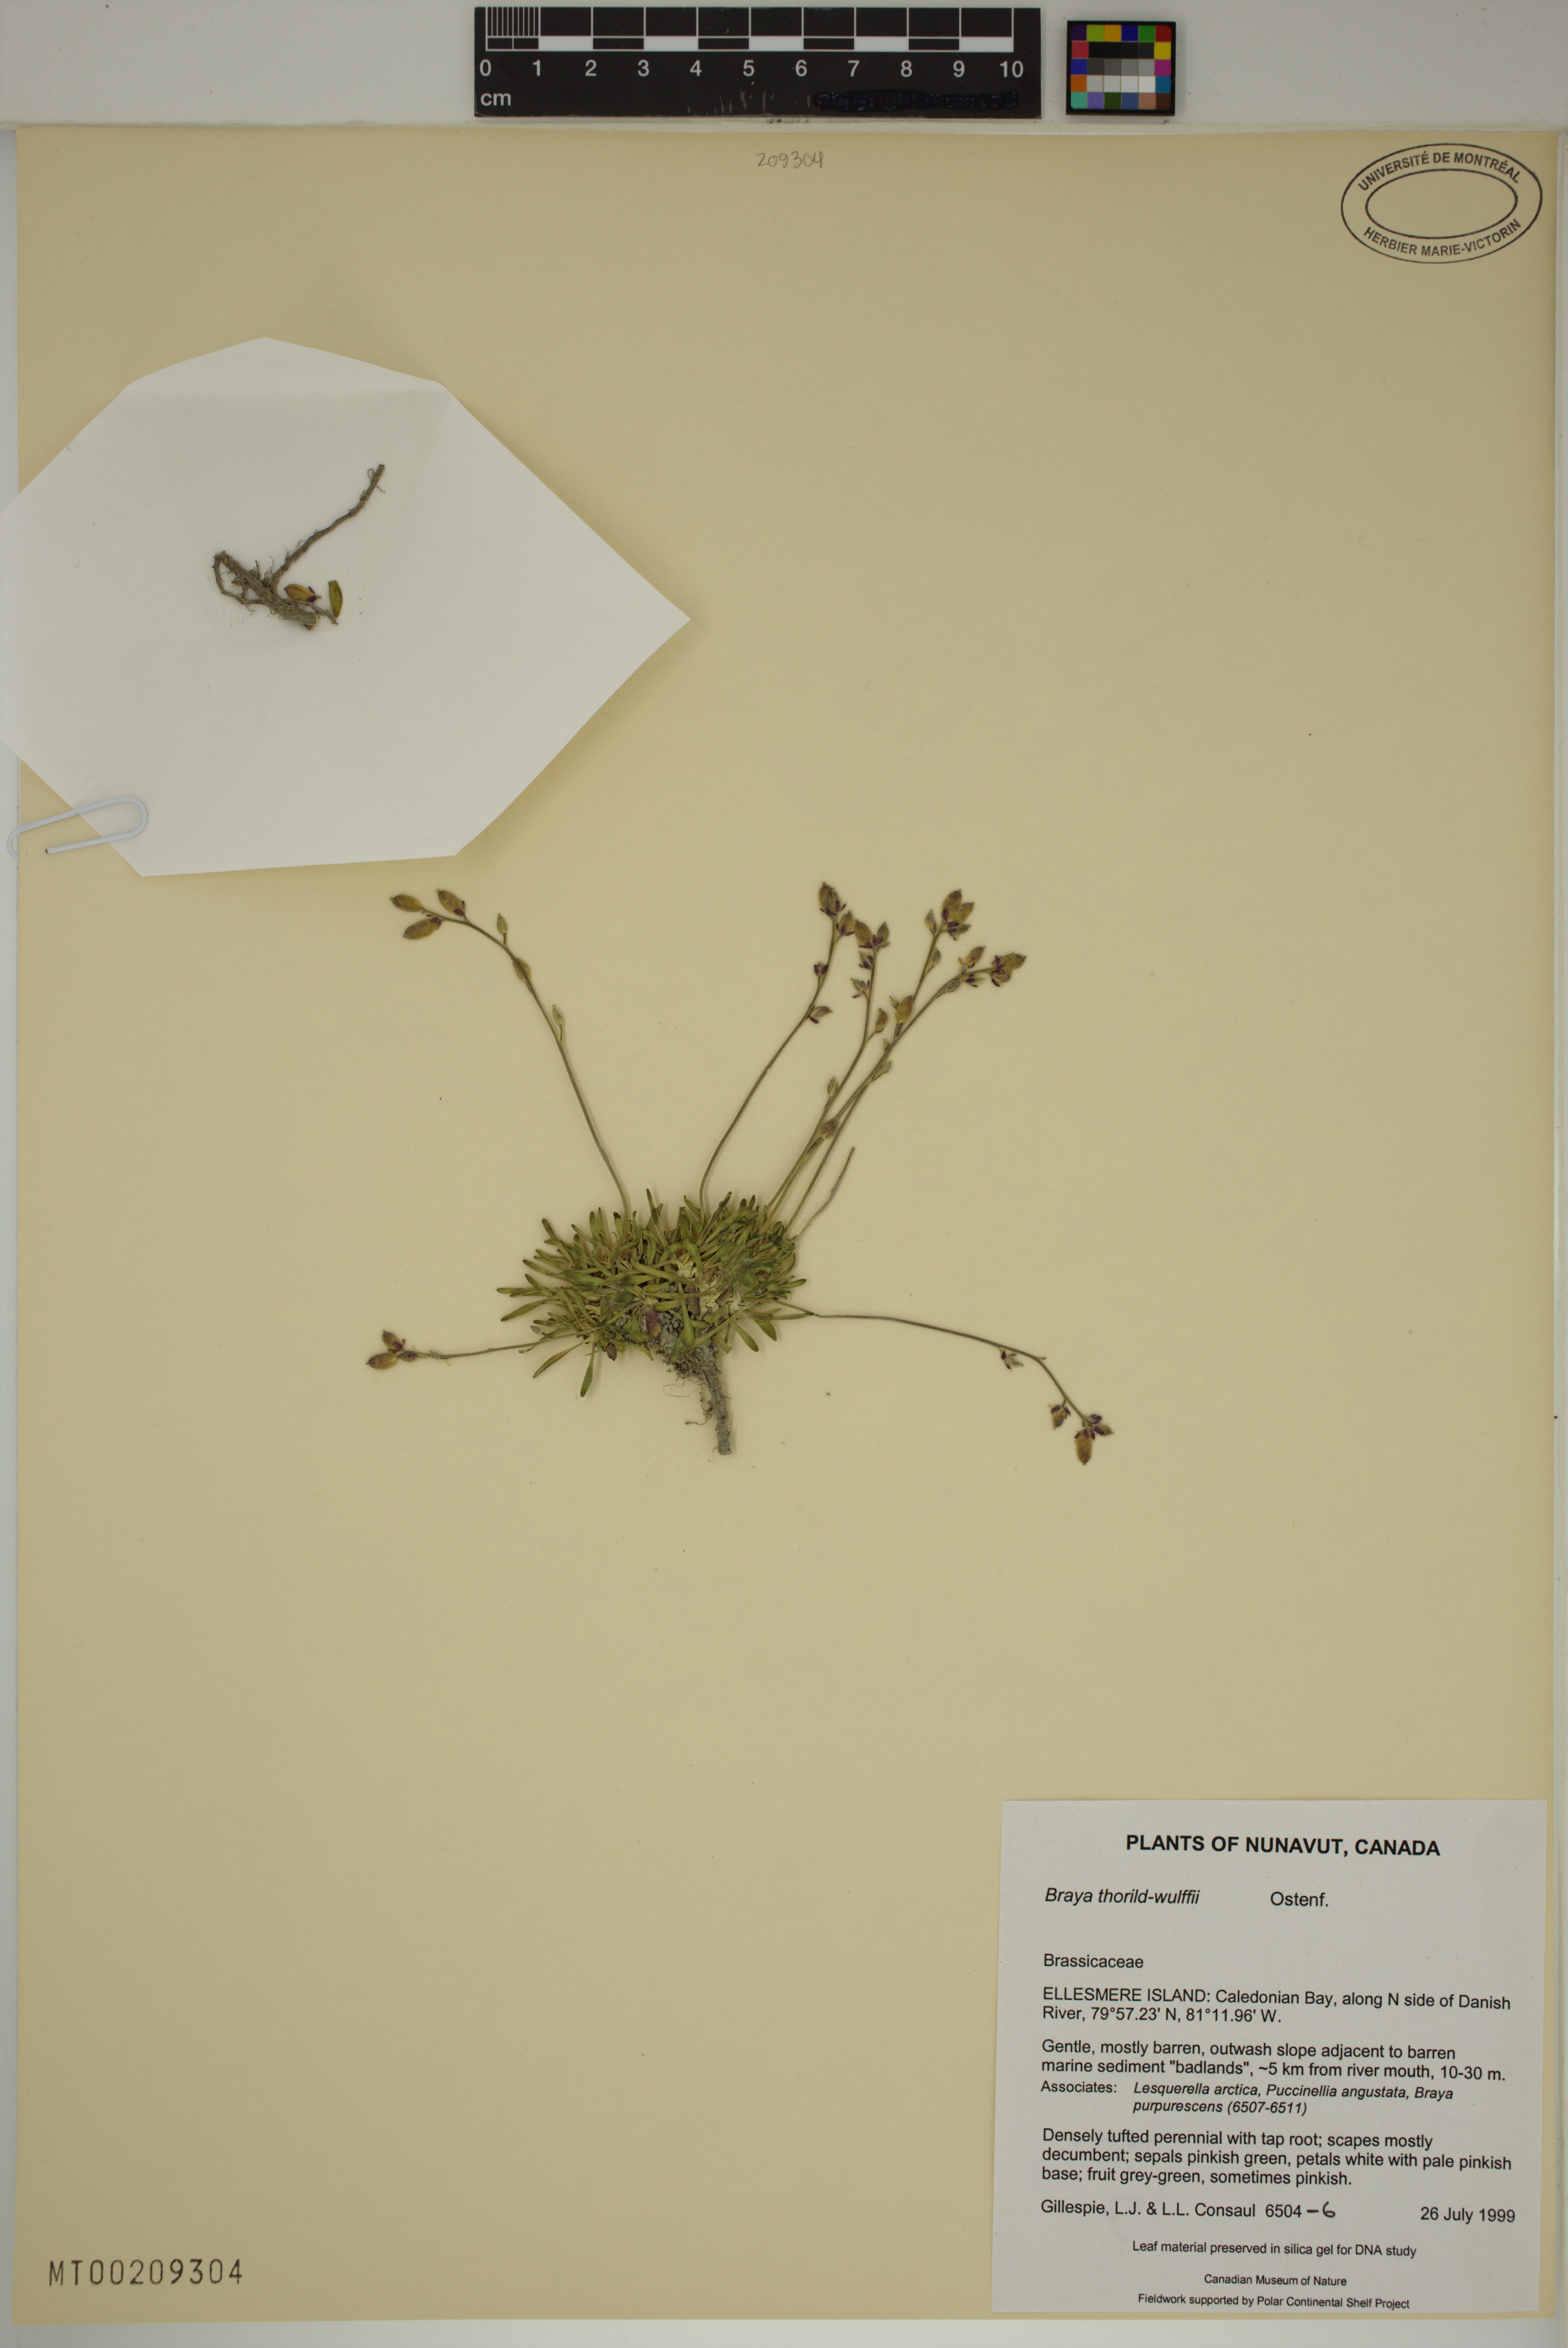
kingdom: Plantae
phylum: Tracheophyta
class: Magnoliopsida
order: Brassicales
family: Brassicaceae
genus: Braya
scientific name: Braya thorild-wulffii
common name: Greenland braya
